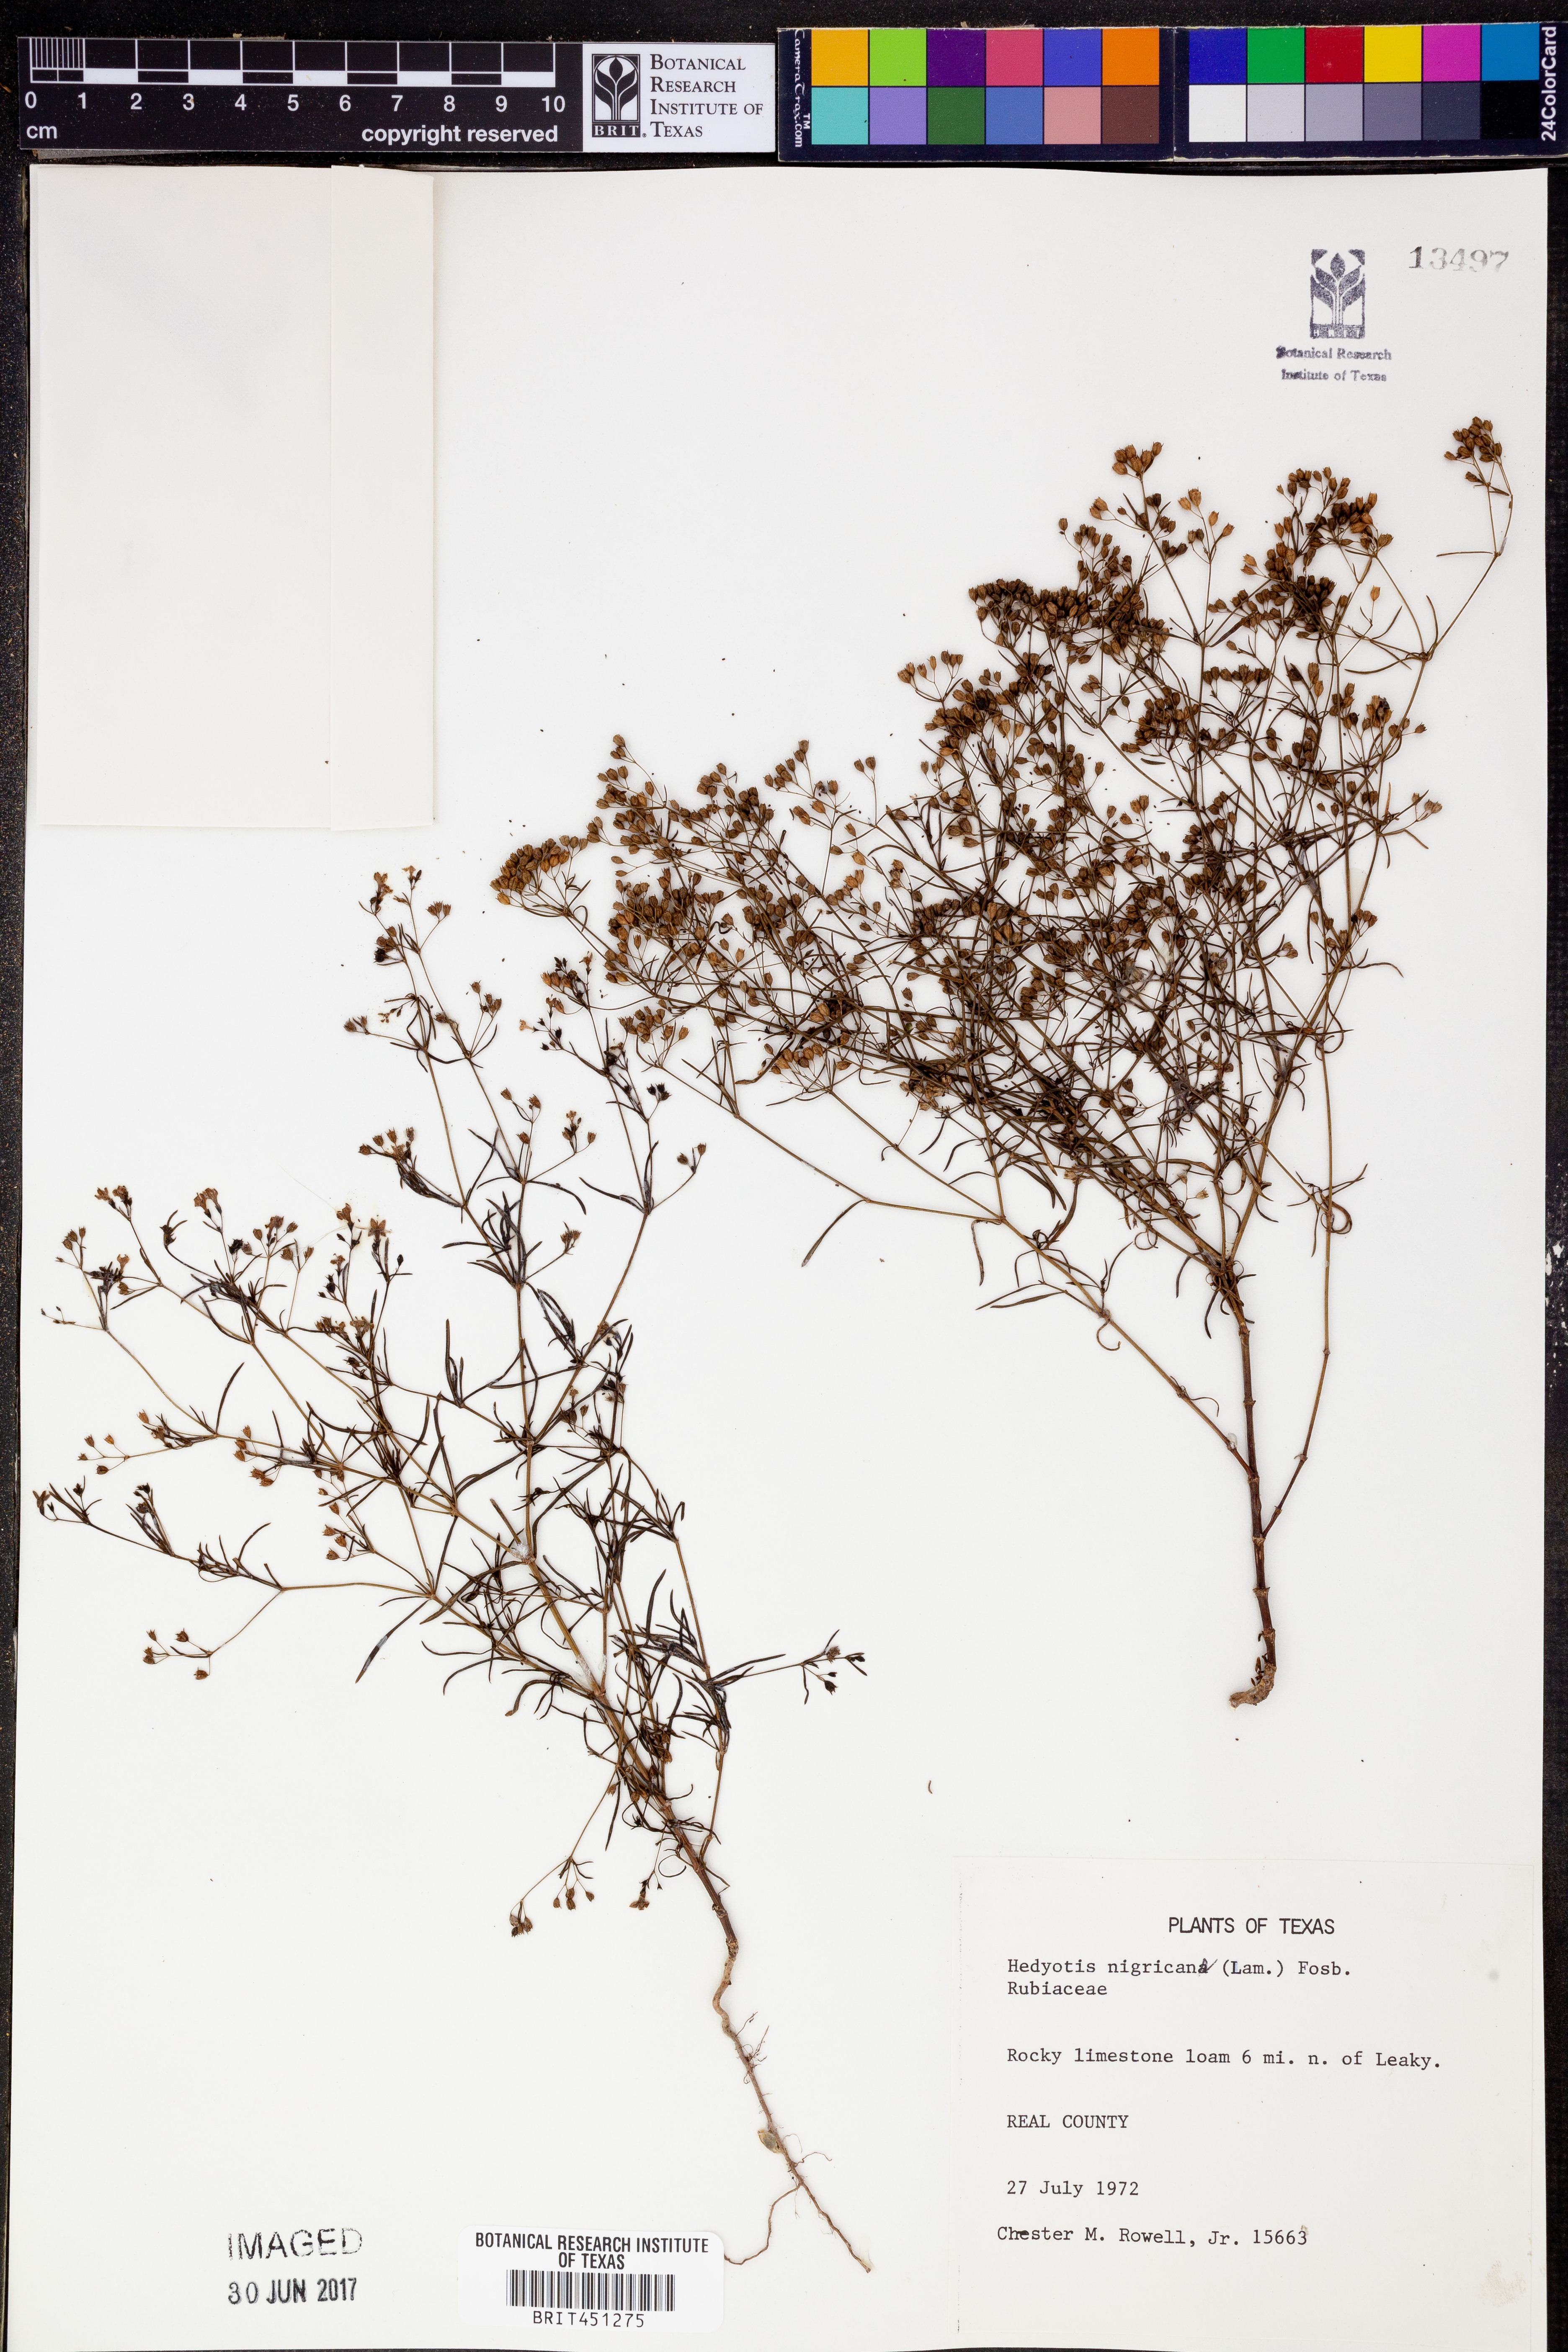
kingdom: Plantae
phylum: Tracheophyta
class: Magnoliopsida
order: Gentianales
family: Rubiaceae
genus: Stenaria
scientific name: Stenaria nigricans
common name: Diamondflowers
